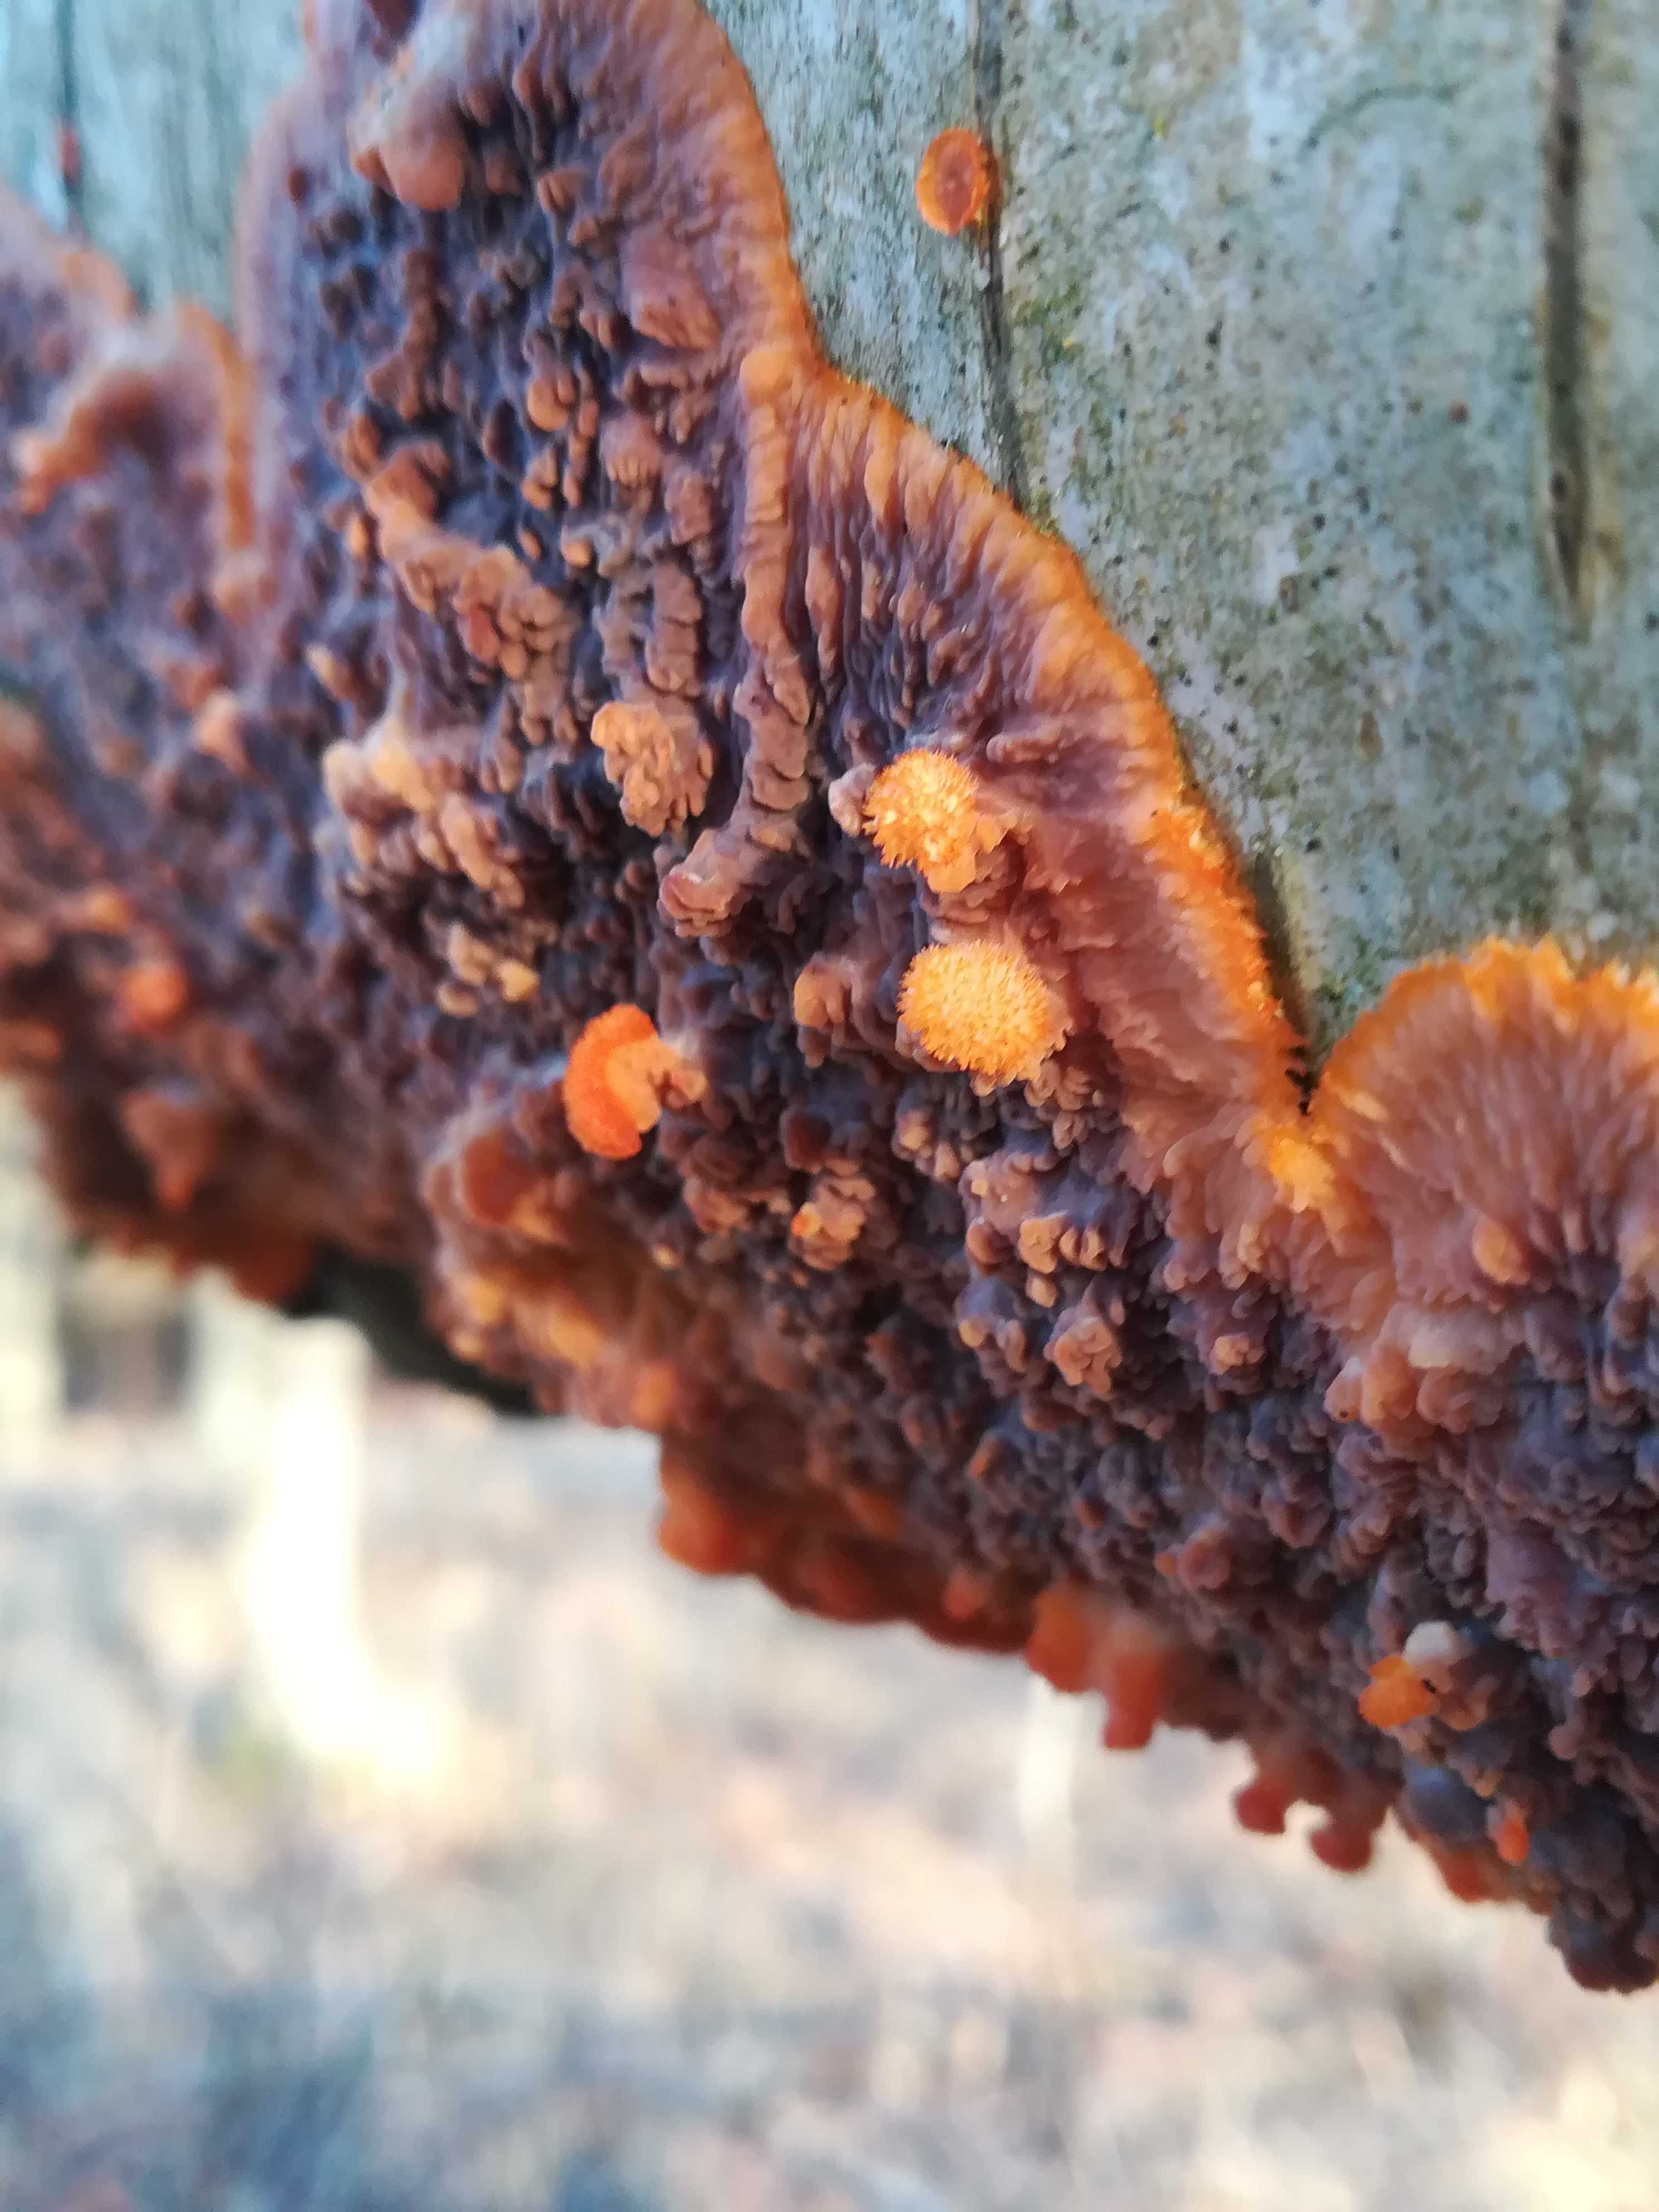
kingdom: Fungi
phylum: Basidiomycota
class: Agaricomycetes
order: Polyporales
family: Meruliaceae
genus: Phlebia
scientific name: Phlebia radiata
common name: stråle-åresvamp
